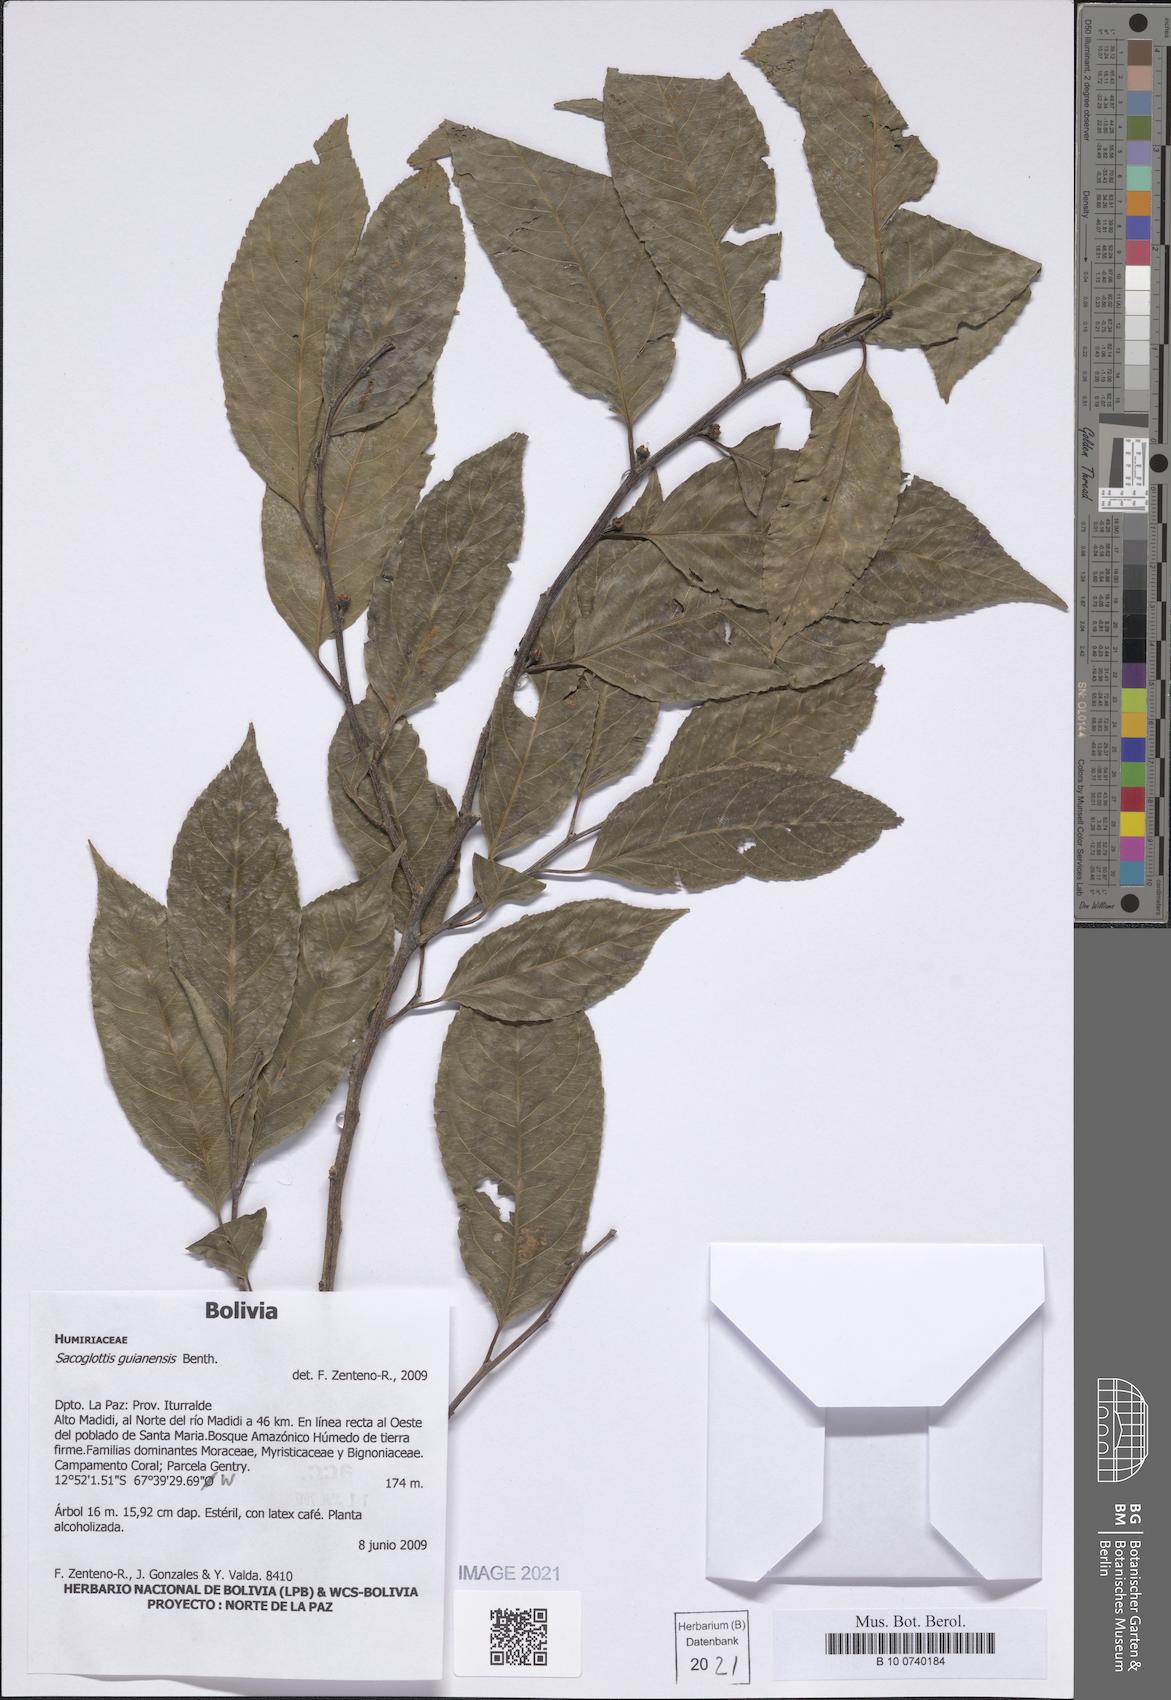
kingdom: Plantae
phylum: Tracheophyta
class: Magnoliopsida
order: Malpighiales
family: Humiriaceae
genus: Sacoglottis
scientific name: Sacoglottis guianensis
